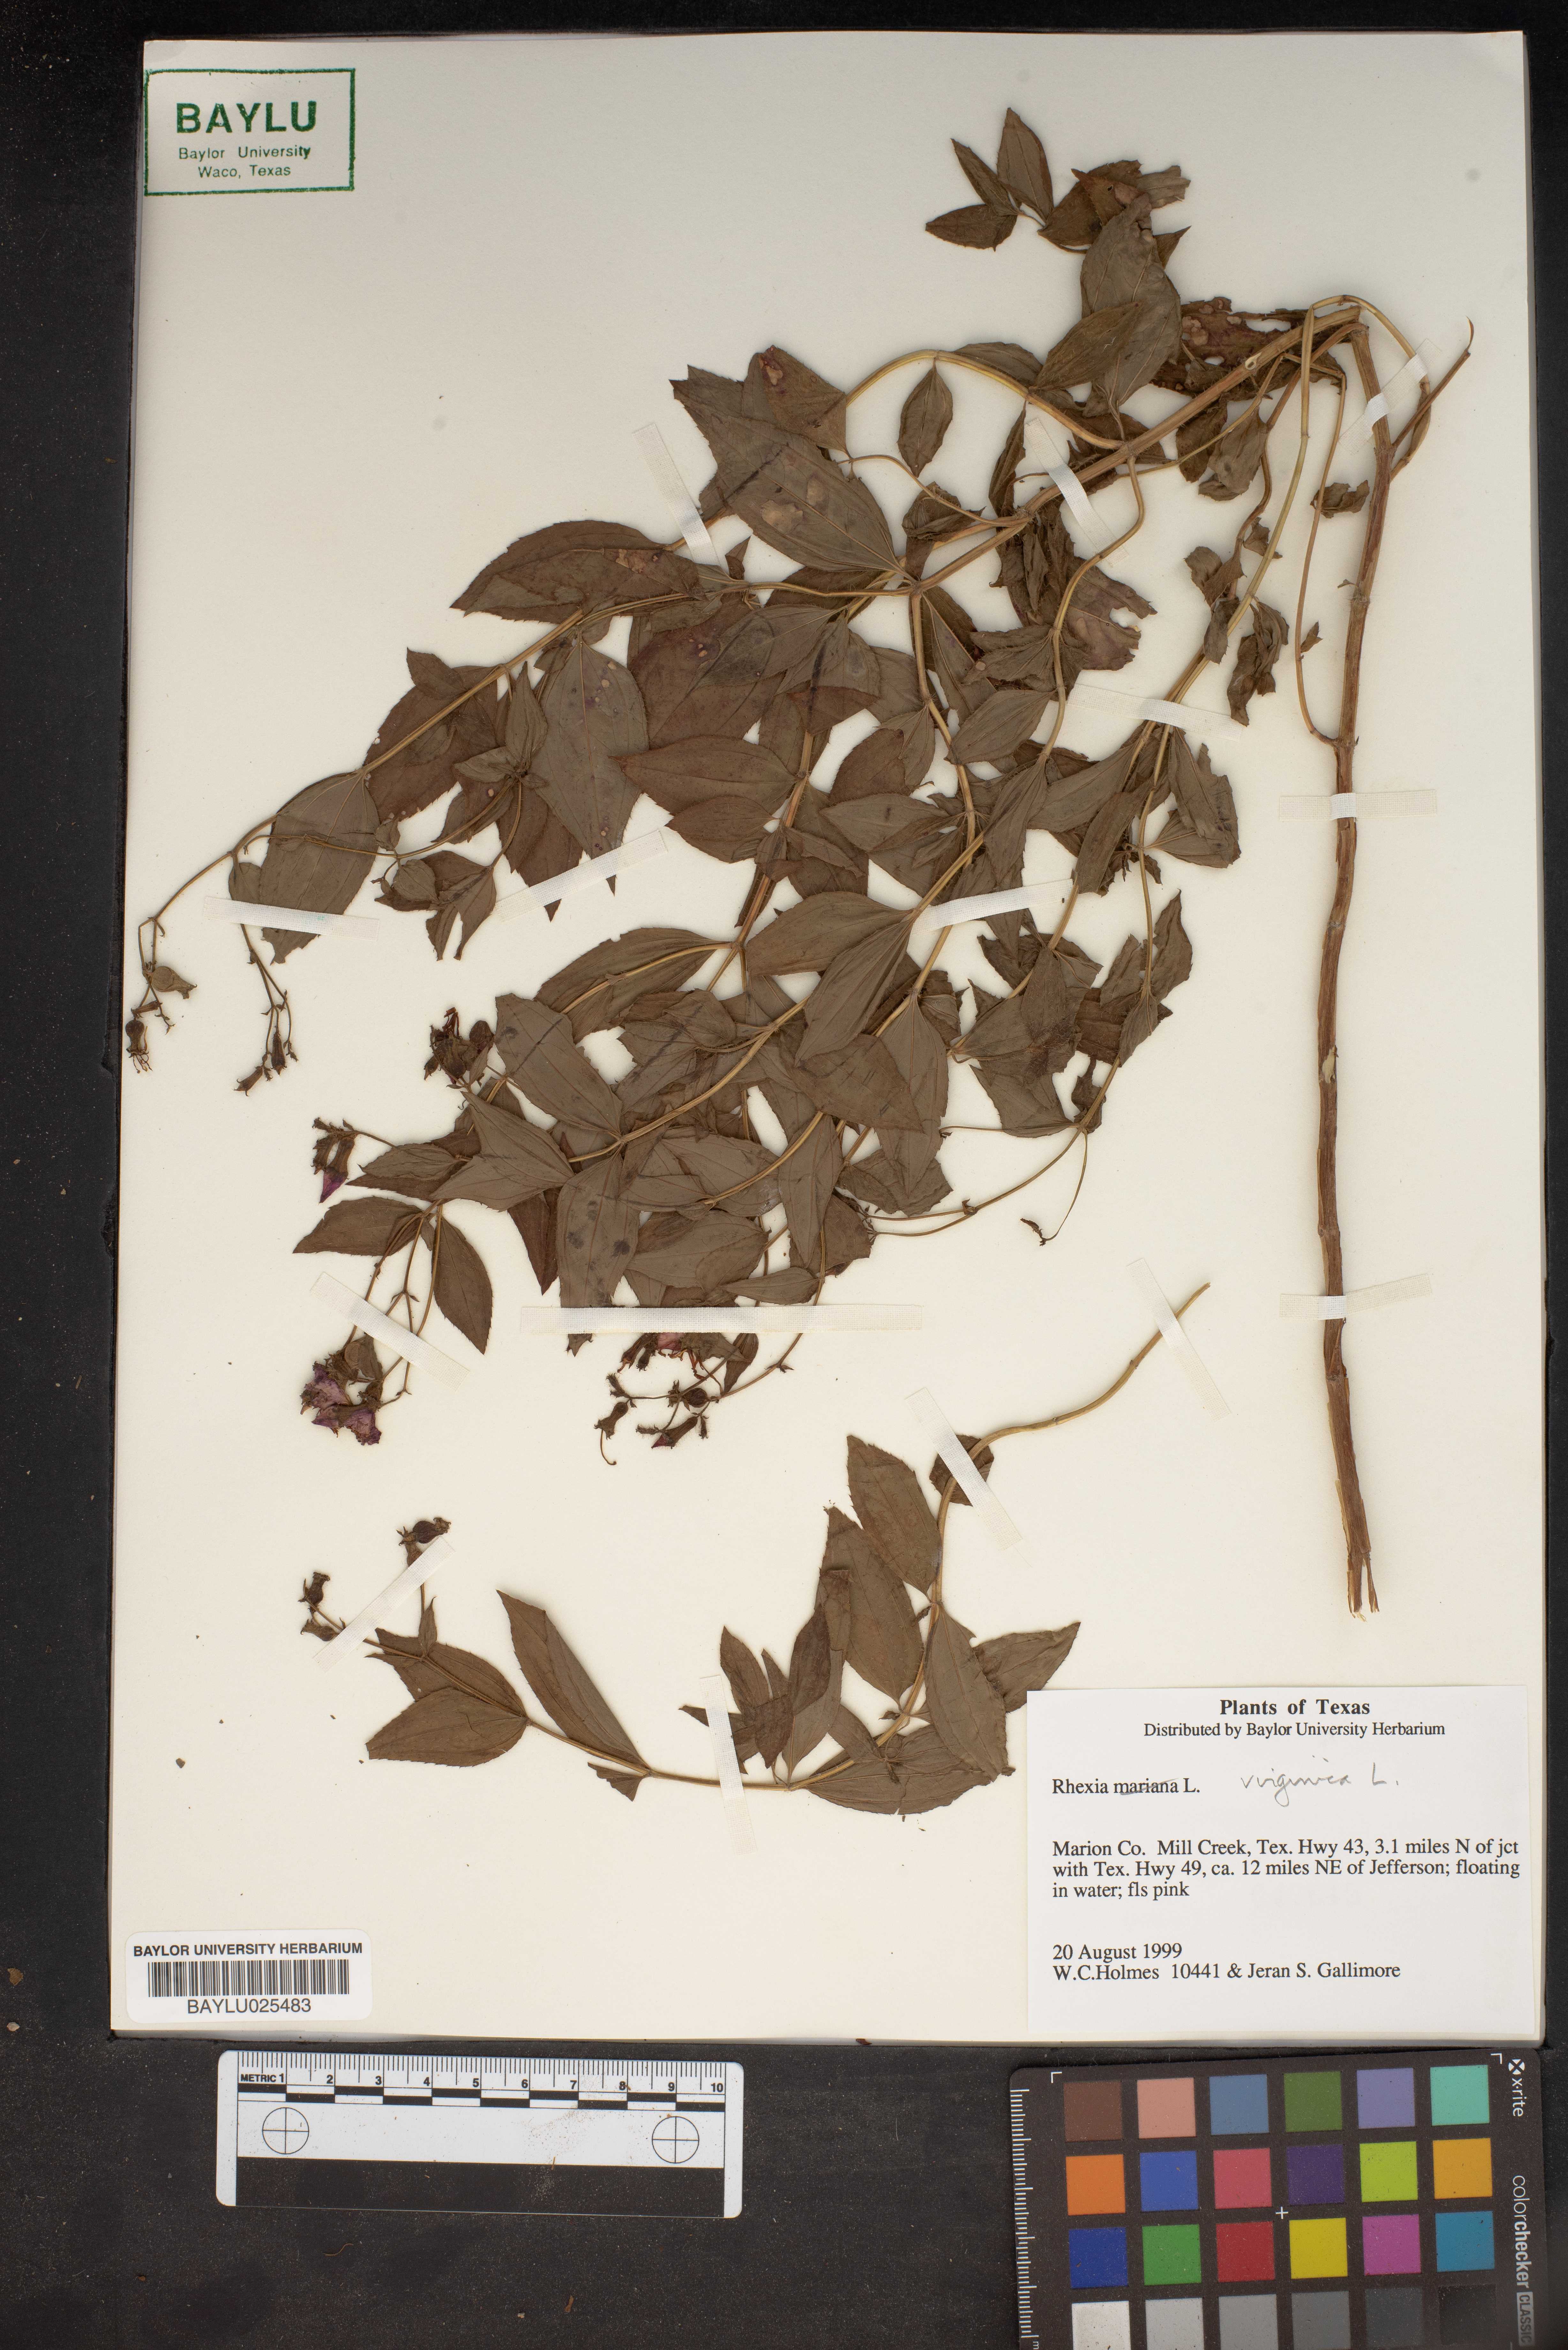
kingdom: Plantae
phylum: Tracheophyta
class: Magnoliopsida
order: Myrtales
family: Melastomataceae
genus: Rhexia
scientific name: Rhexia virginica
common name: Common meadow beauty
